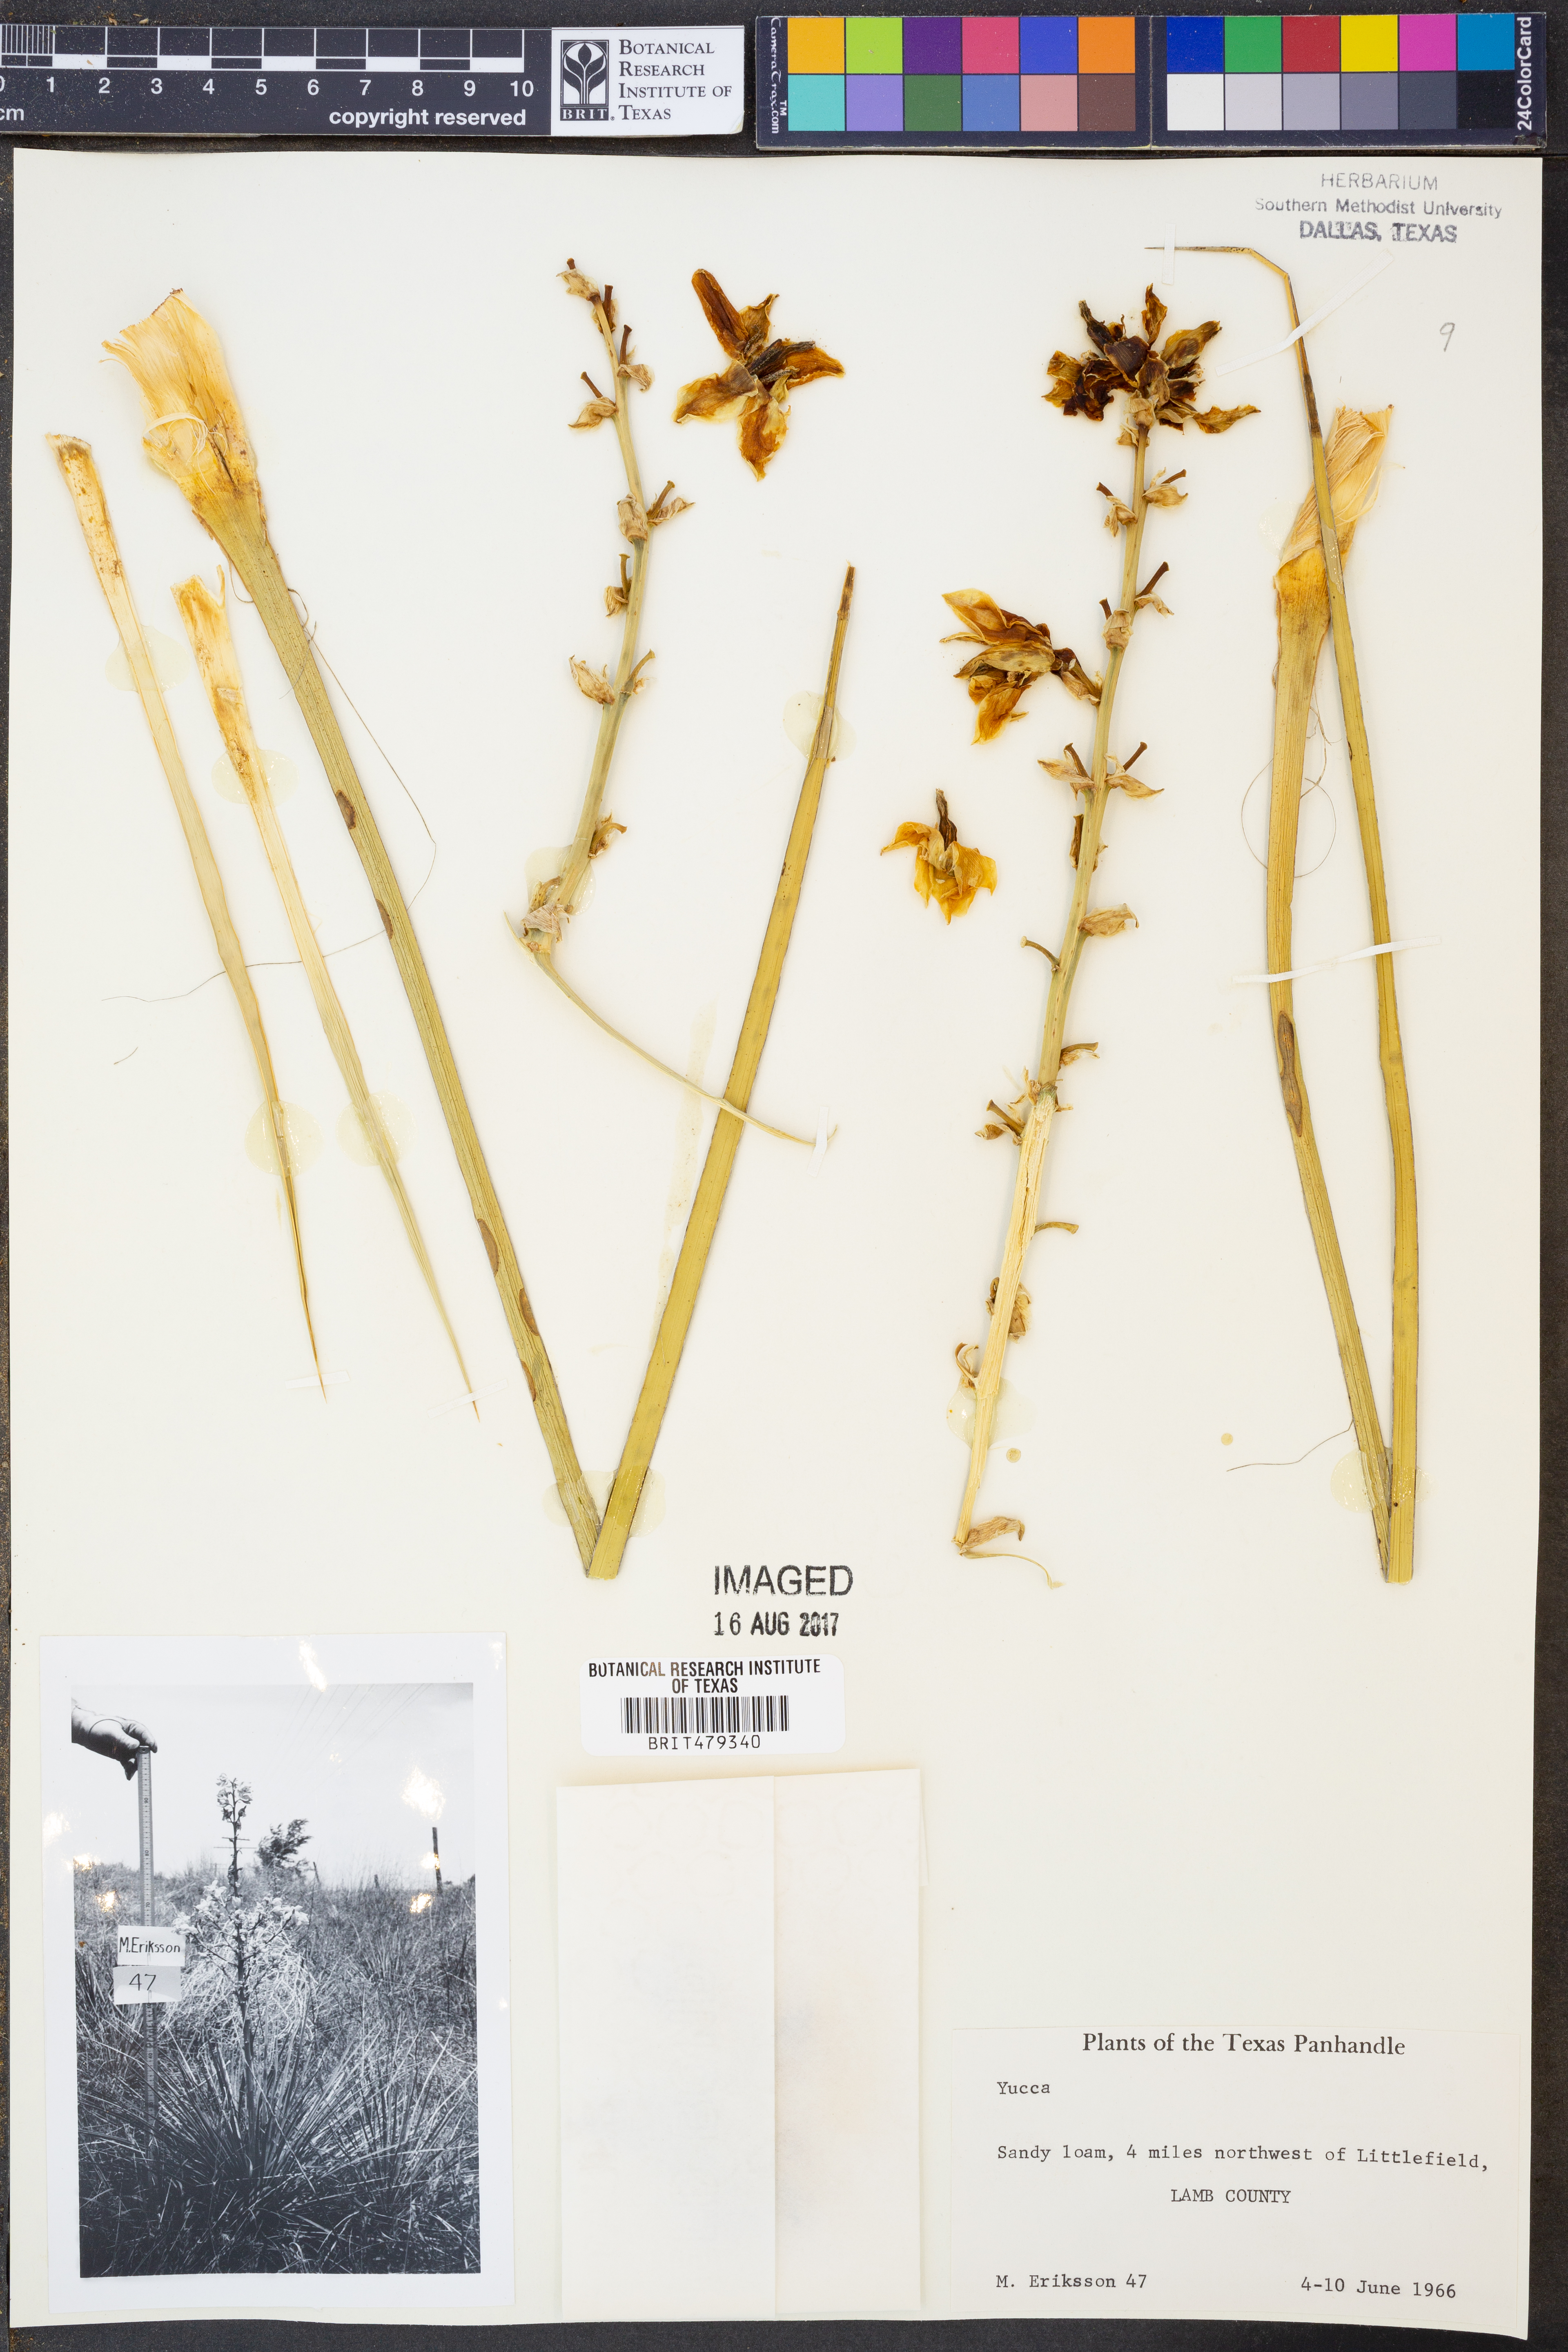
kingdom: Plantae
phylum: Tracheophyta
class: Liliopsida
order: Asparagales
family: Asparagaceae
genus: Yucca
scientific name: Yucca glauca
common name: Great plains yucca
